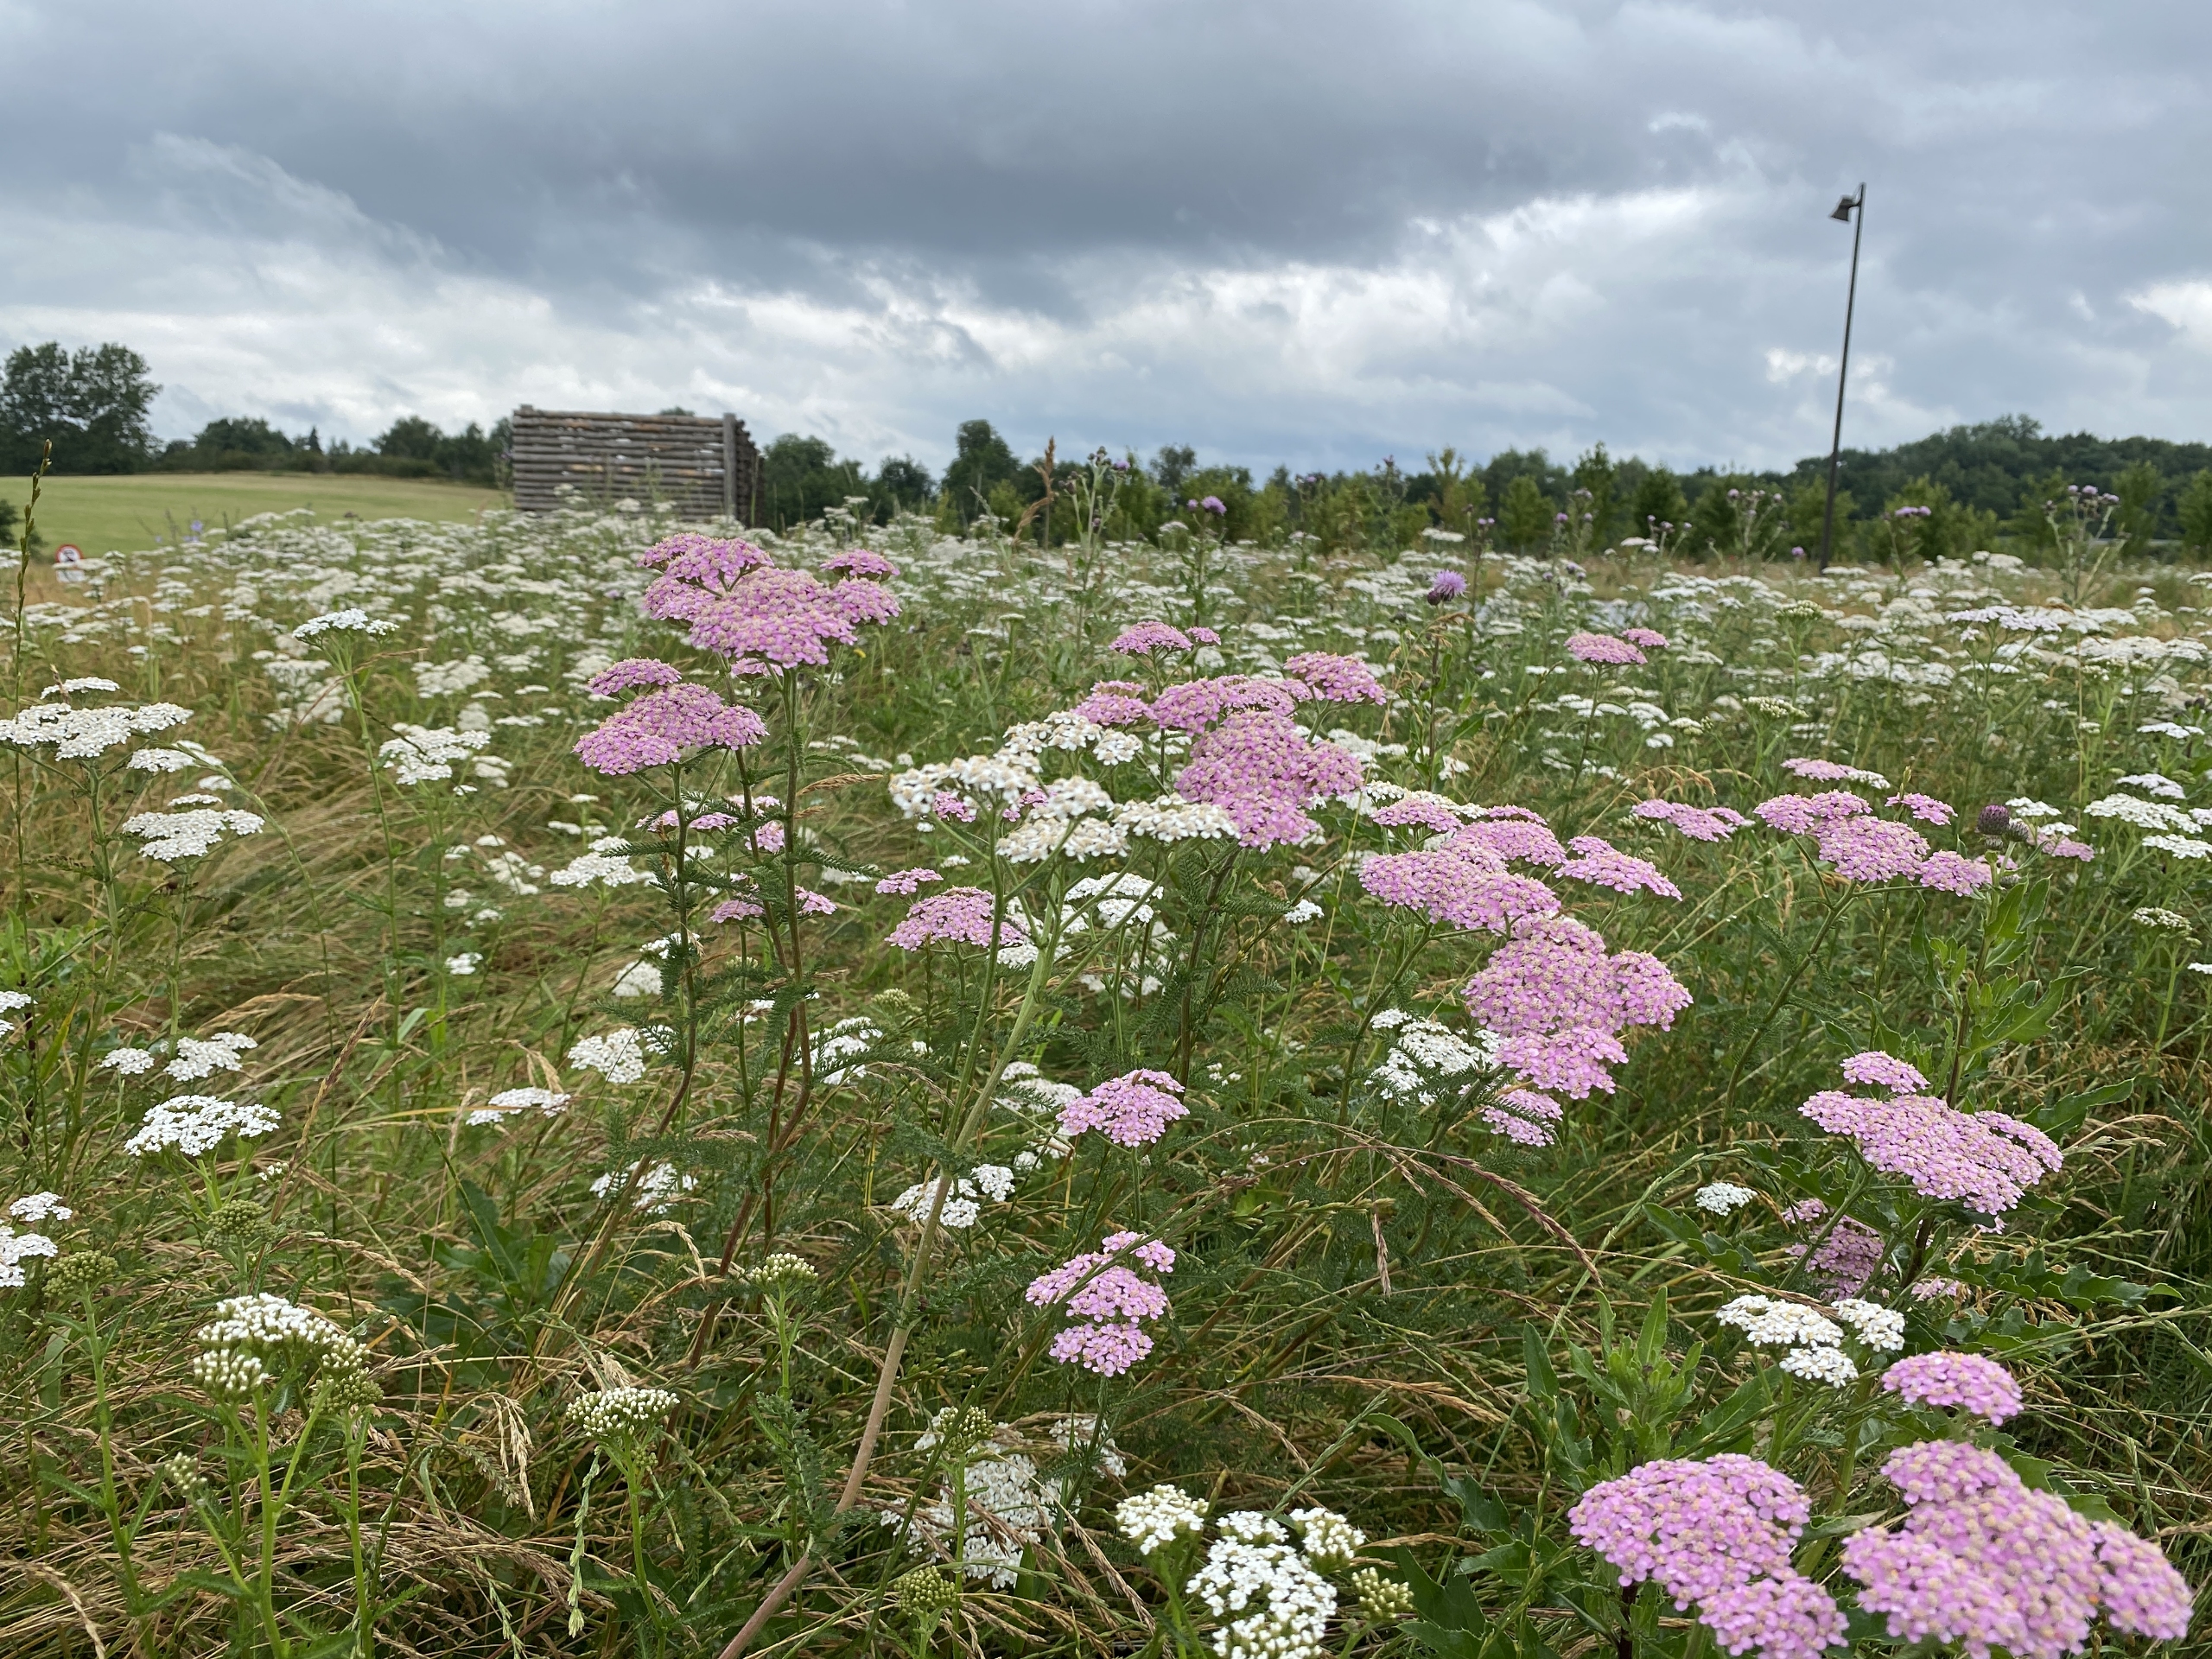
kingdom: Plantae
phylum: Tracheophyta
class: Magnoliopsida
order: Asterales
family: Asteraceae
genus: Achillea
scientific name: Achillea millefolium
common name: Almindelig røllike
